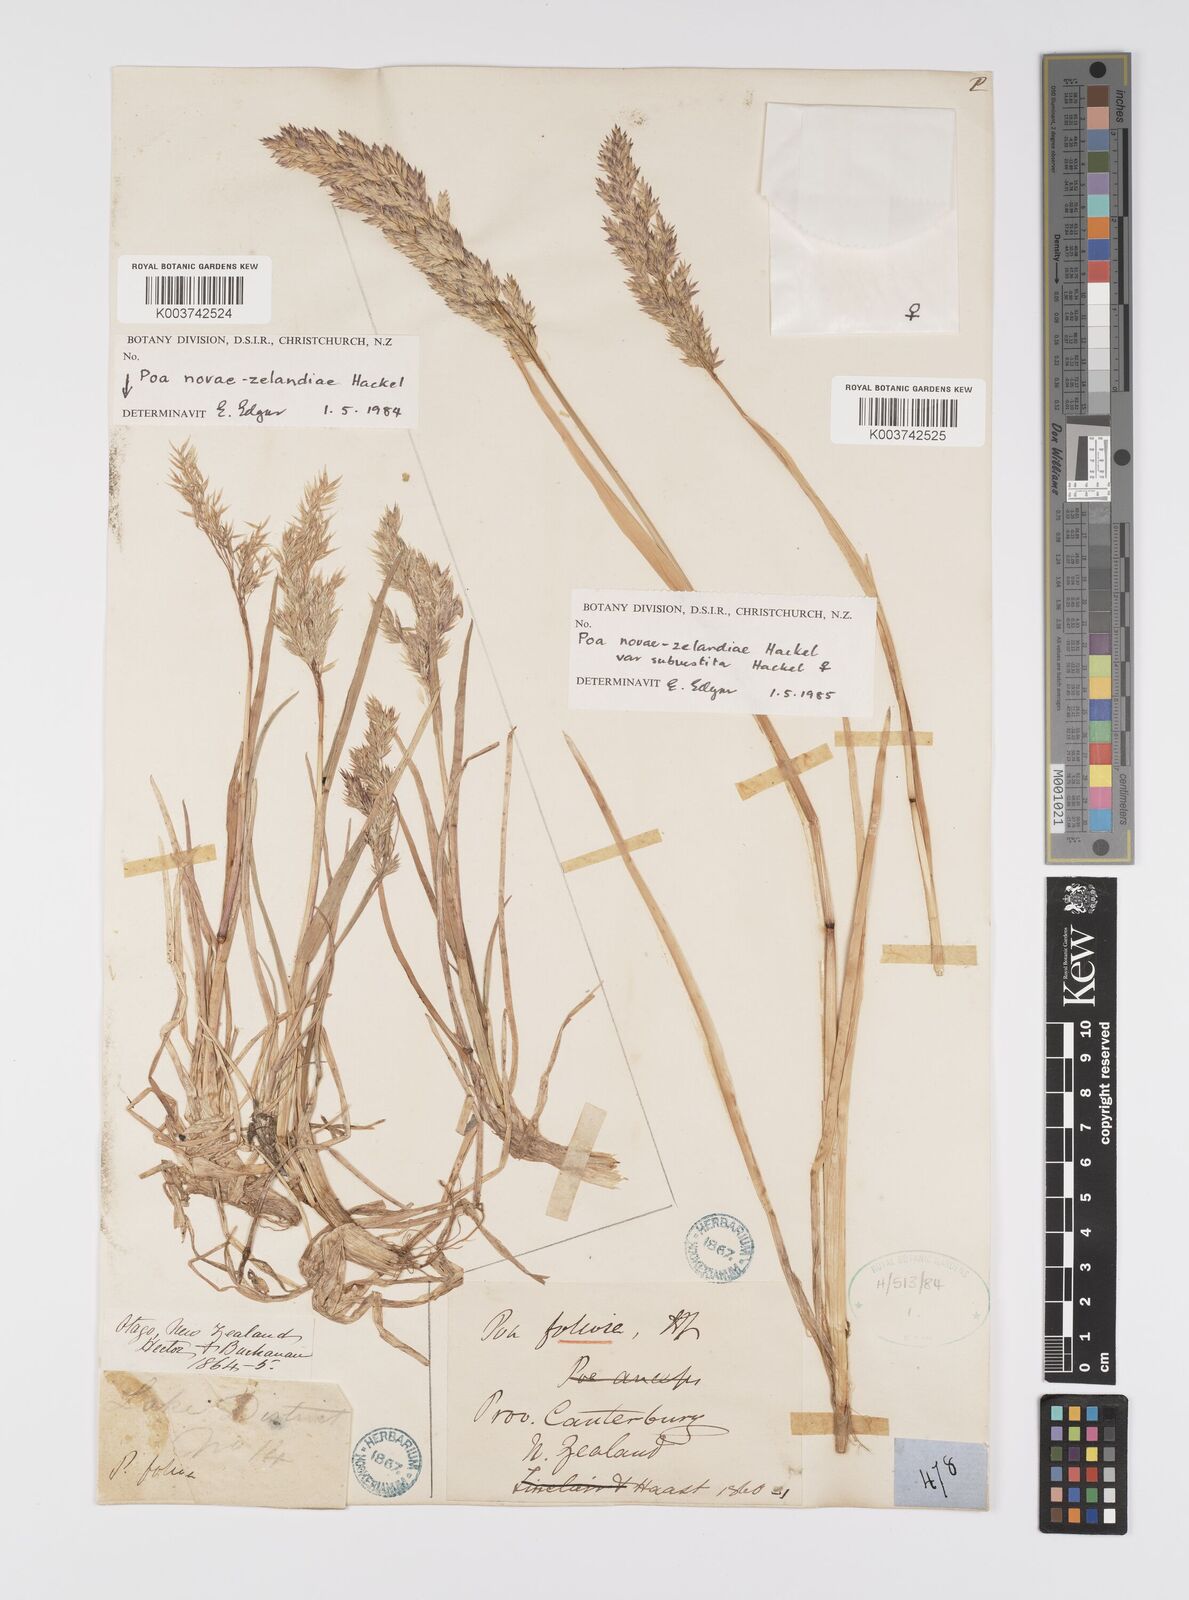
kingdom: Plantae
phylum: Tracheophyta
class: Liliopsida
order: Poales
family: Poaceae
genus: Poa
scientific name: Poa novae-zelandiae
